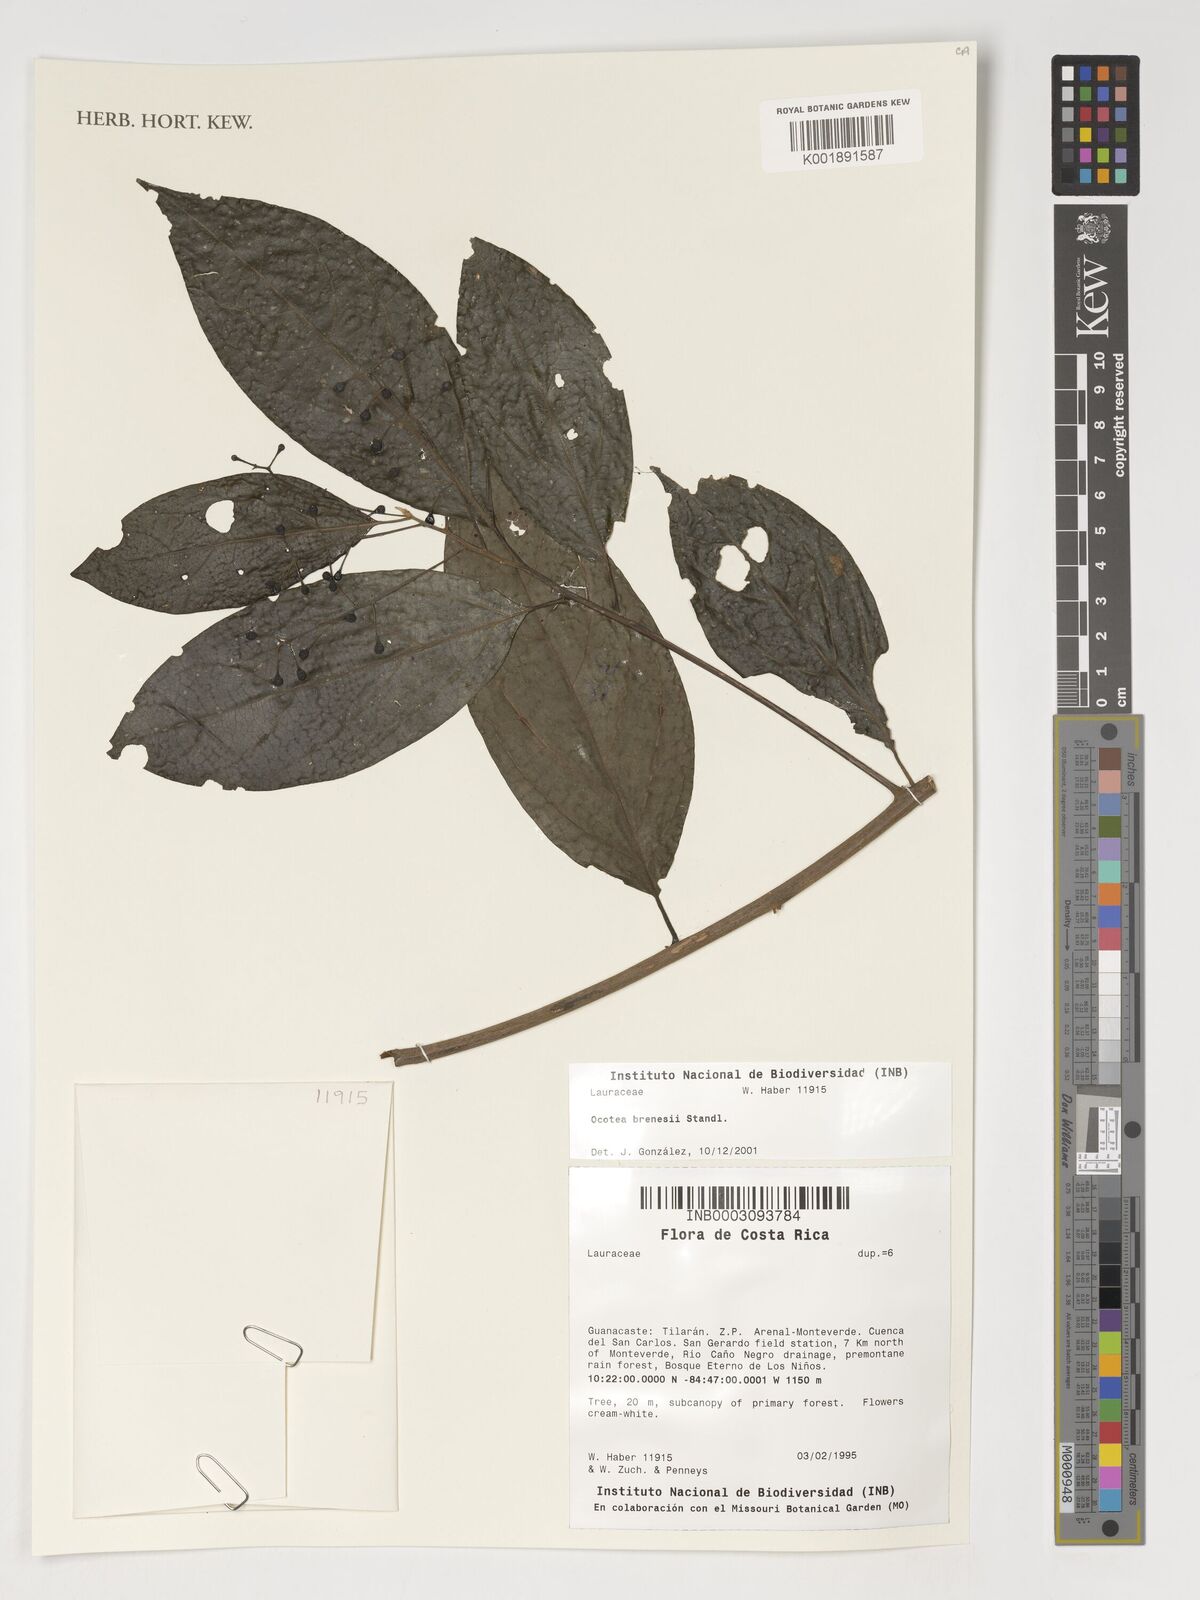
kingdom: Plantae
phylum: Tracheophyta
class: Magnoliopsida
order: Laurales
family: Lauraceae
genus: Ocotea
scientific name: Ocotea brenesii
